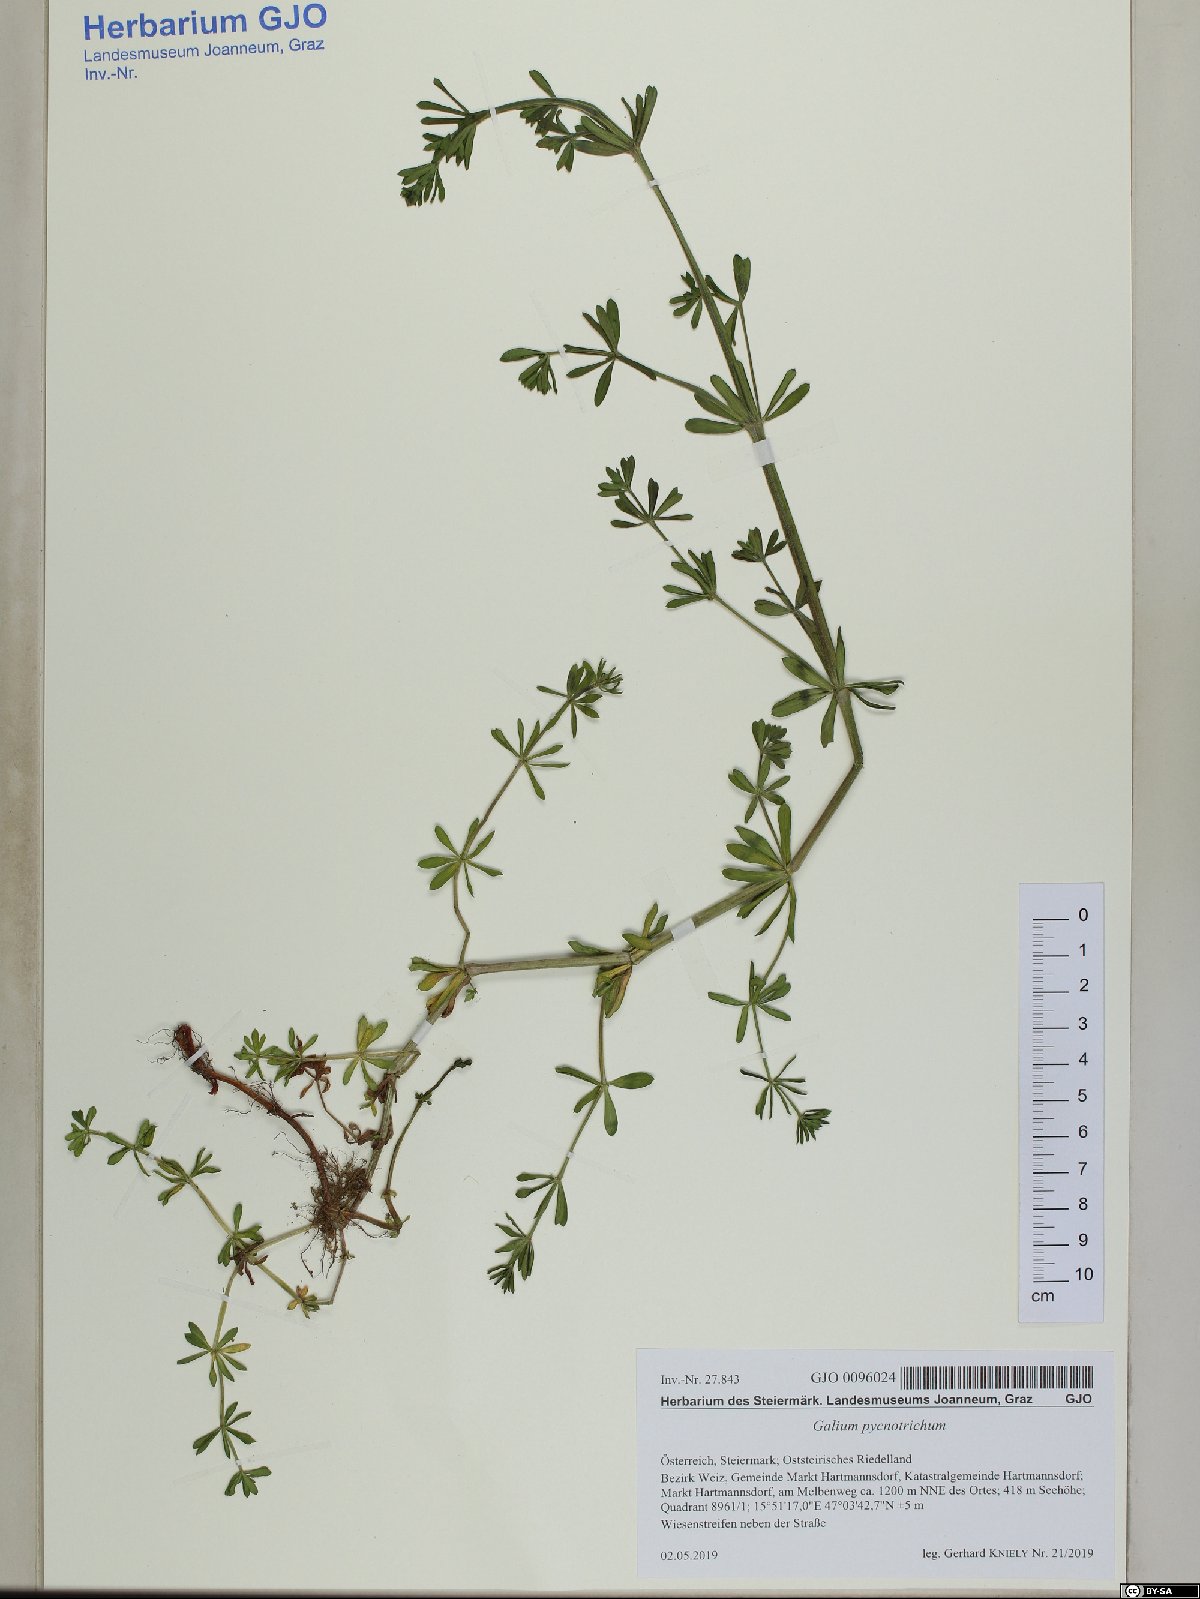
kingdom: Plantae
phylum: Tracheophyta
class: Magnoliopsida
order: Gentianales
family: Rubiaceae
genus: Galium
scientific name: Galium album
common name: White bedstraw
